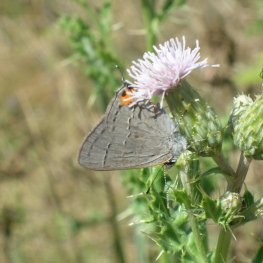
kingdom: Animalia
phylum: Arthropoda
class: Insecta
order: Lepidoptera
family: Lycaenidae
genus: Strymon
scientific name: Strymon melinus
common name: Gray Hairstreak
